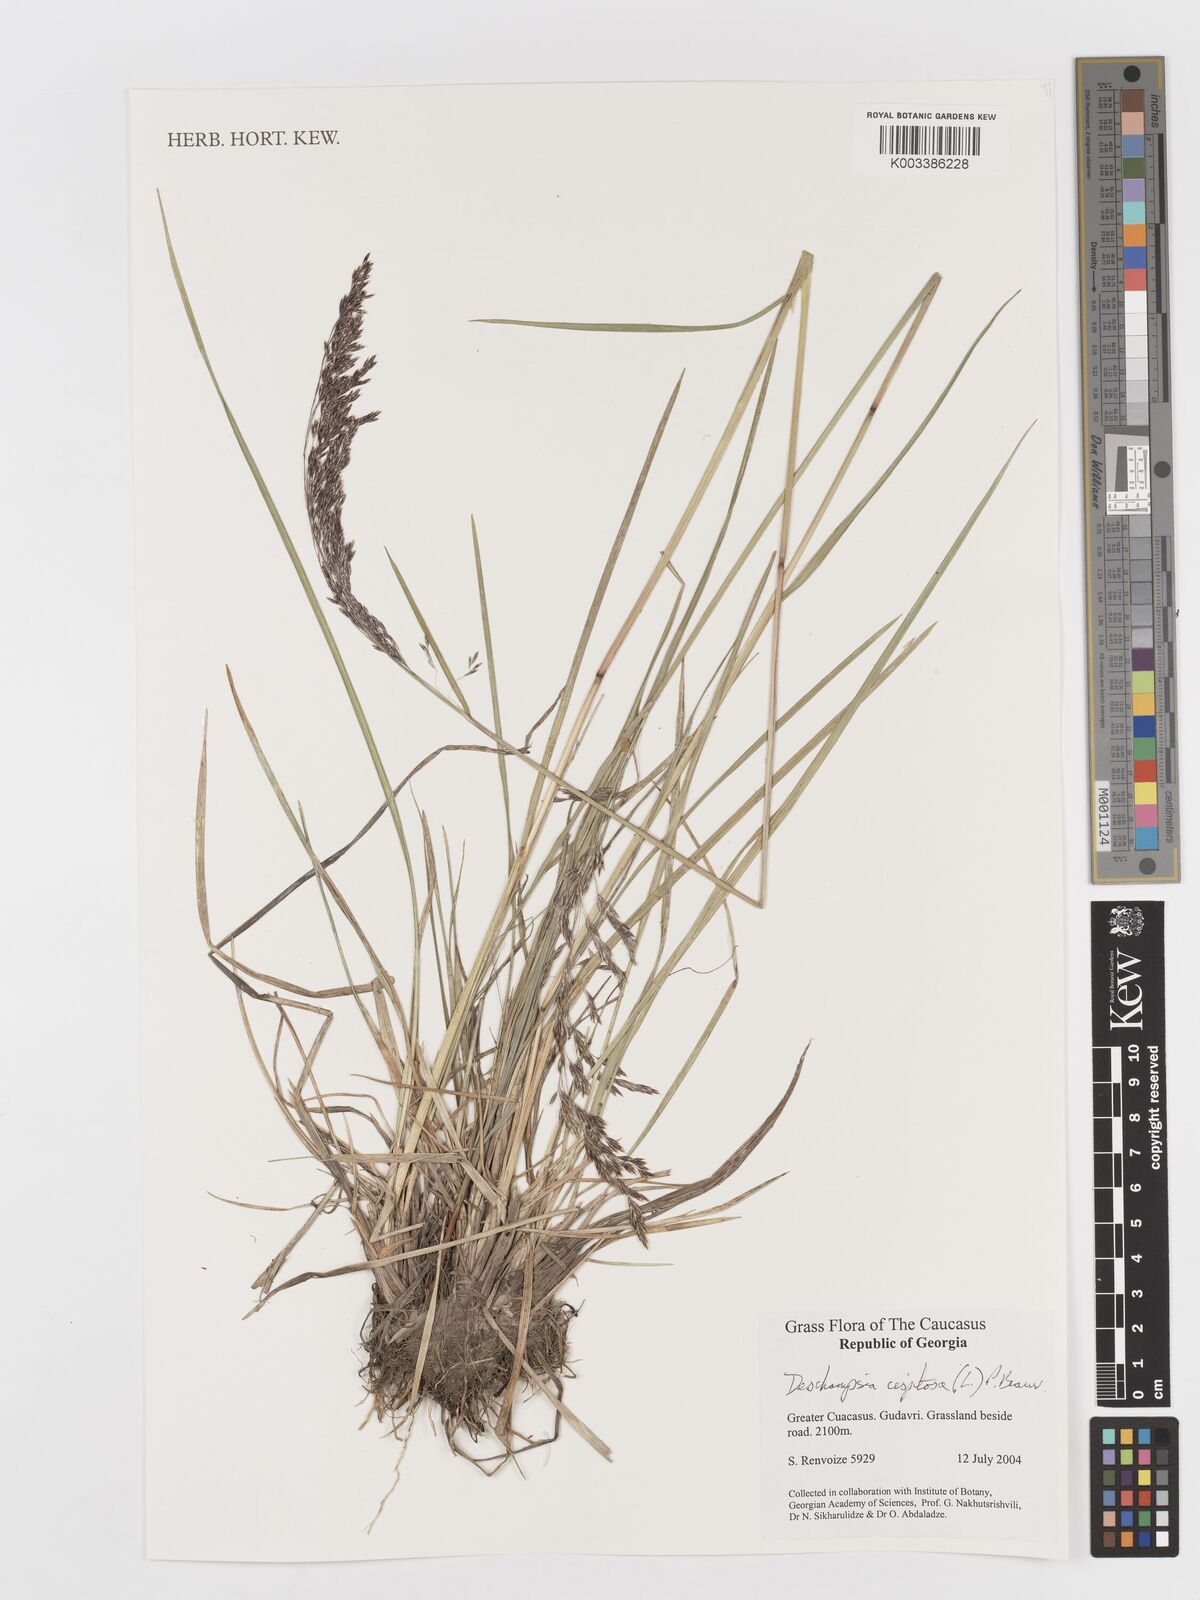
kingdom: Plantae
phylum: Tracheophyta
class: Liliopsida
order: Poales
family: Poaceae
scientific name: Poaceae
